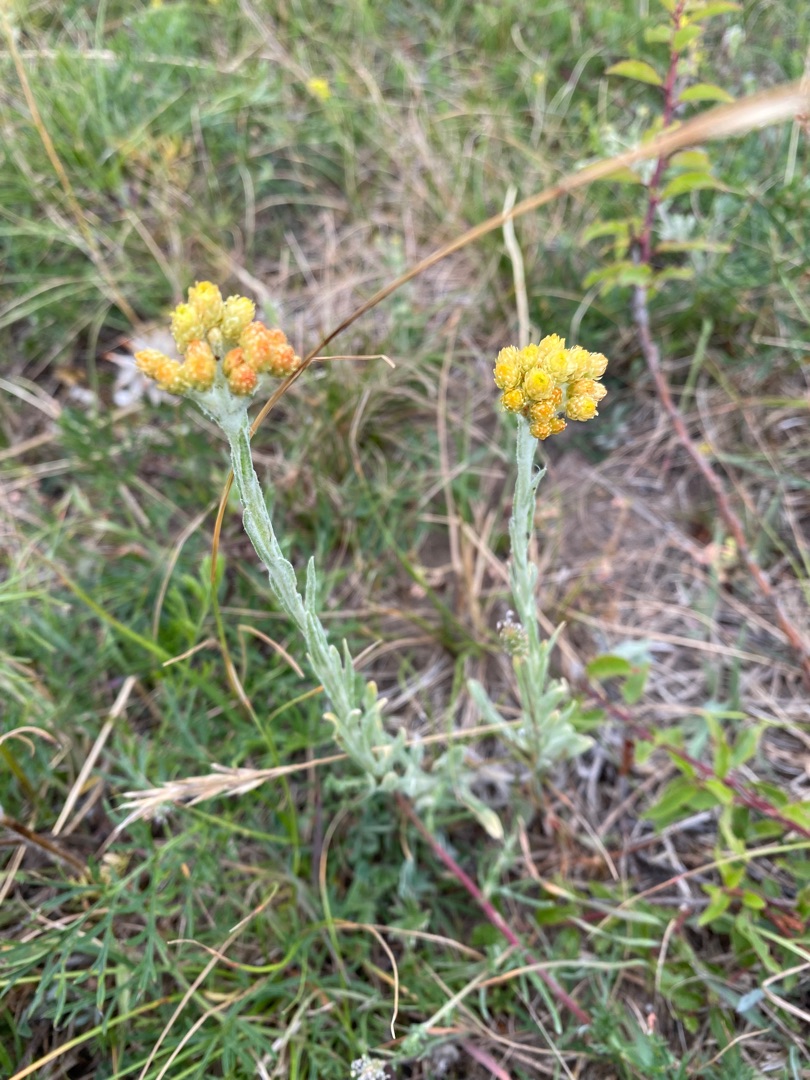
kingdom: Plantae
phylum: Tracheophyta
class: Magnoliopsida
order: Asterales
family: Asteraceae
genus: Helichrysum
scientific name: Helichrysum arenarium
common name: Gul evighedsblomst
